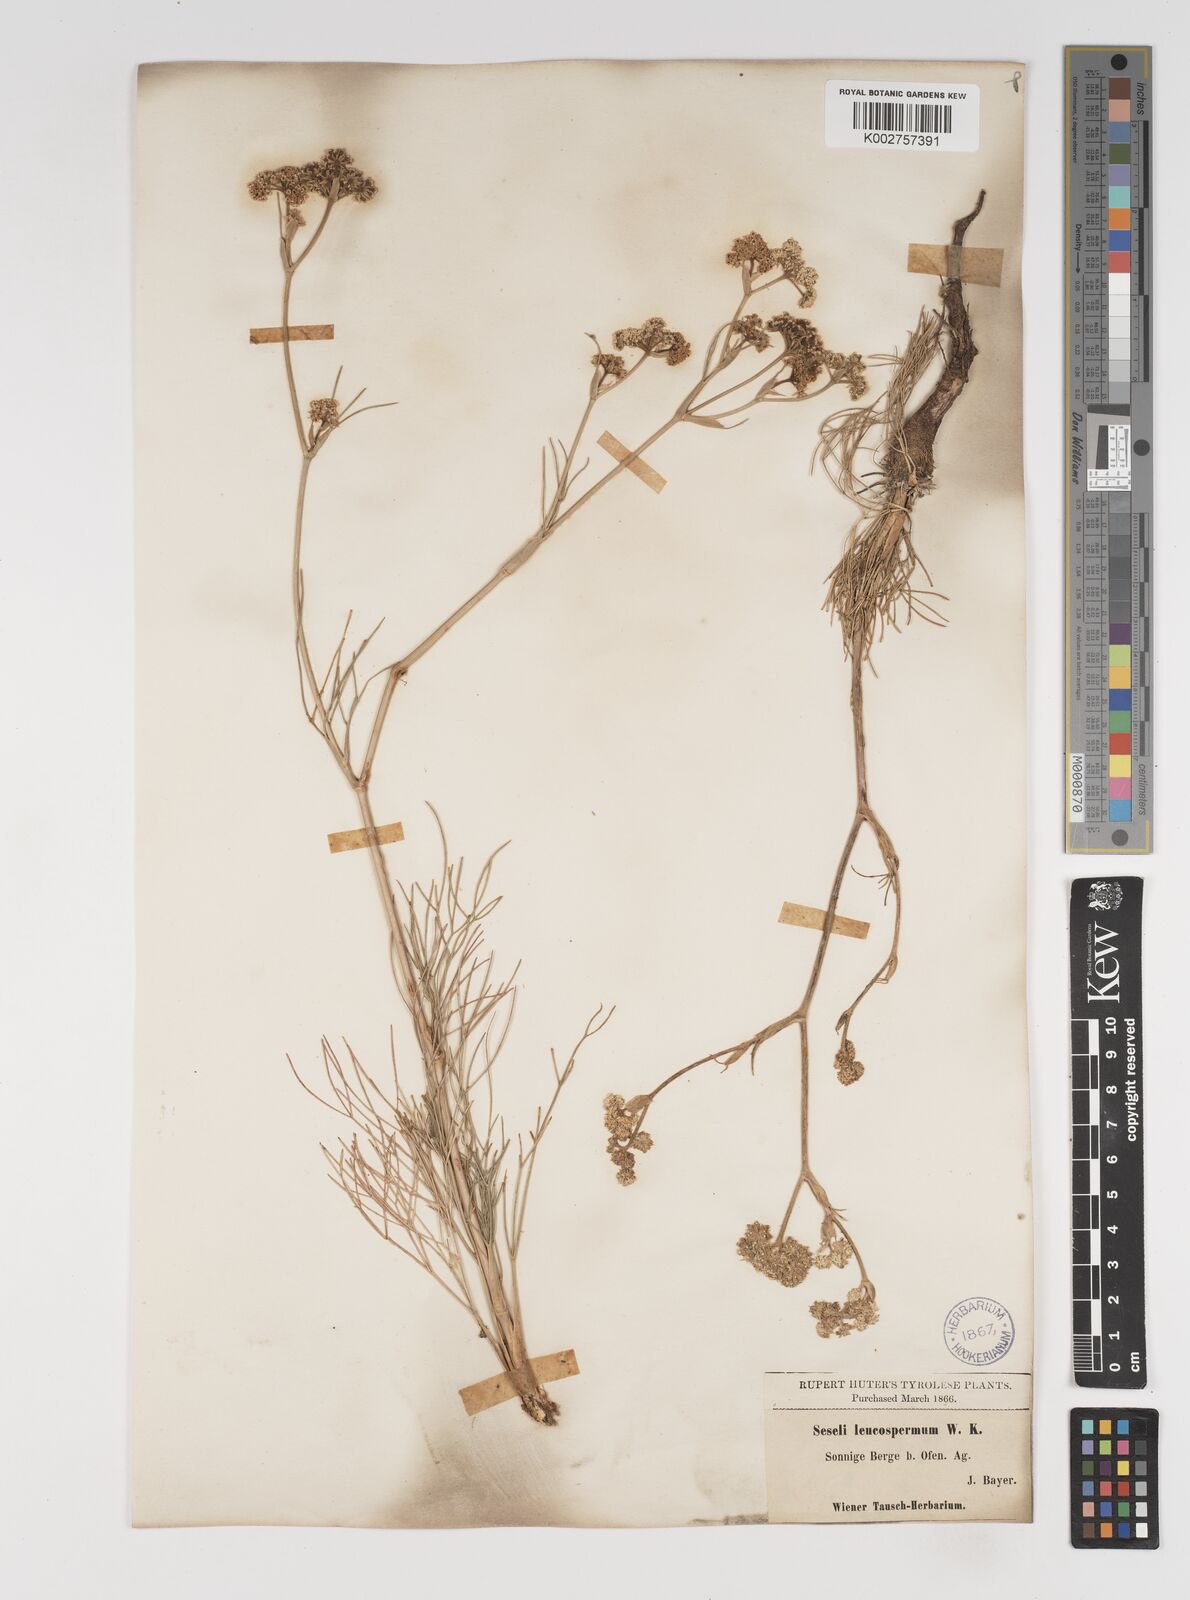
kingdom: Plantae
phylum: Tracheophyta
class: Magnoliopsida
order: Apiales
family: Apiaceae
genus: Seseli
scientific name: Seseli leucospermum
